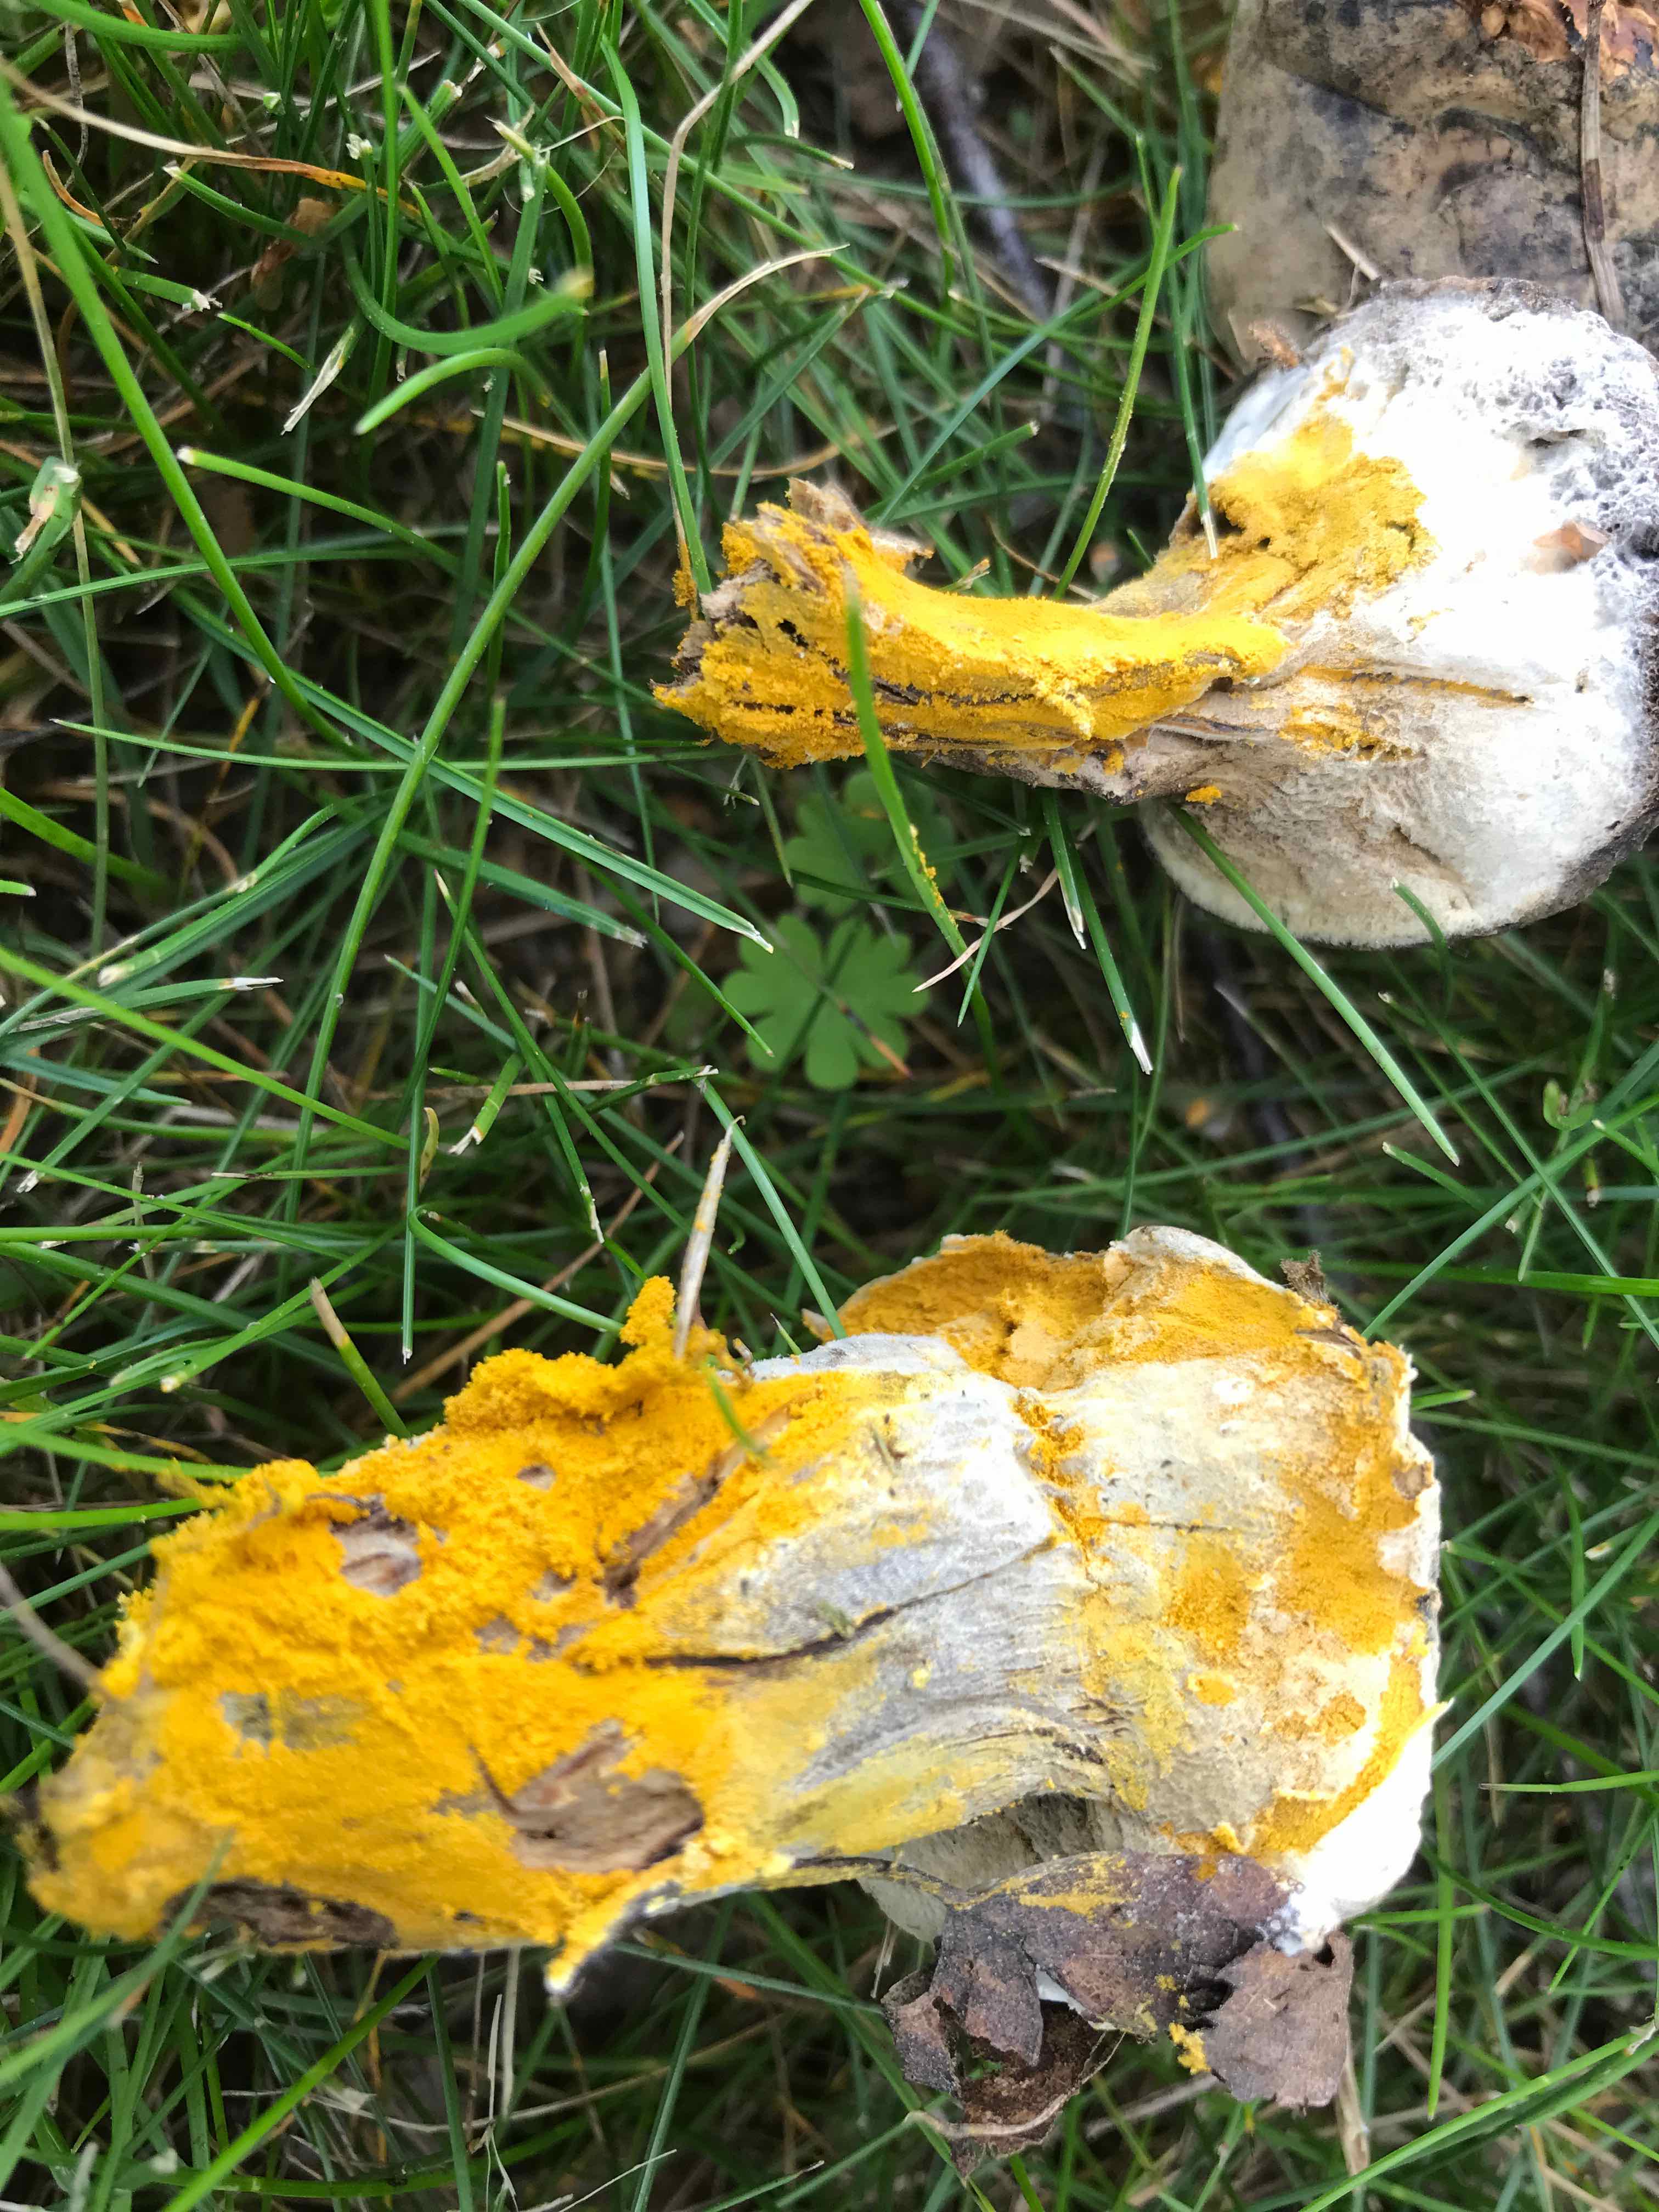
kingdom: Fungi
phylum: Ascomycota
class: Sordariomycetes
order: Hypocreales
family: Hypocreaceae
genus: Hypomyces
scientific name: Hypomyces microspermus
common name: dværgrørhat-snylteskorpe
